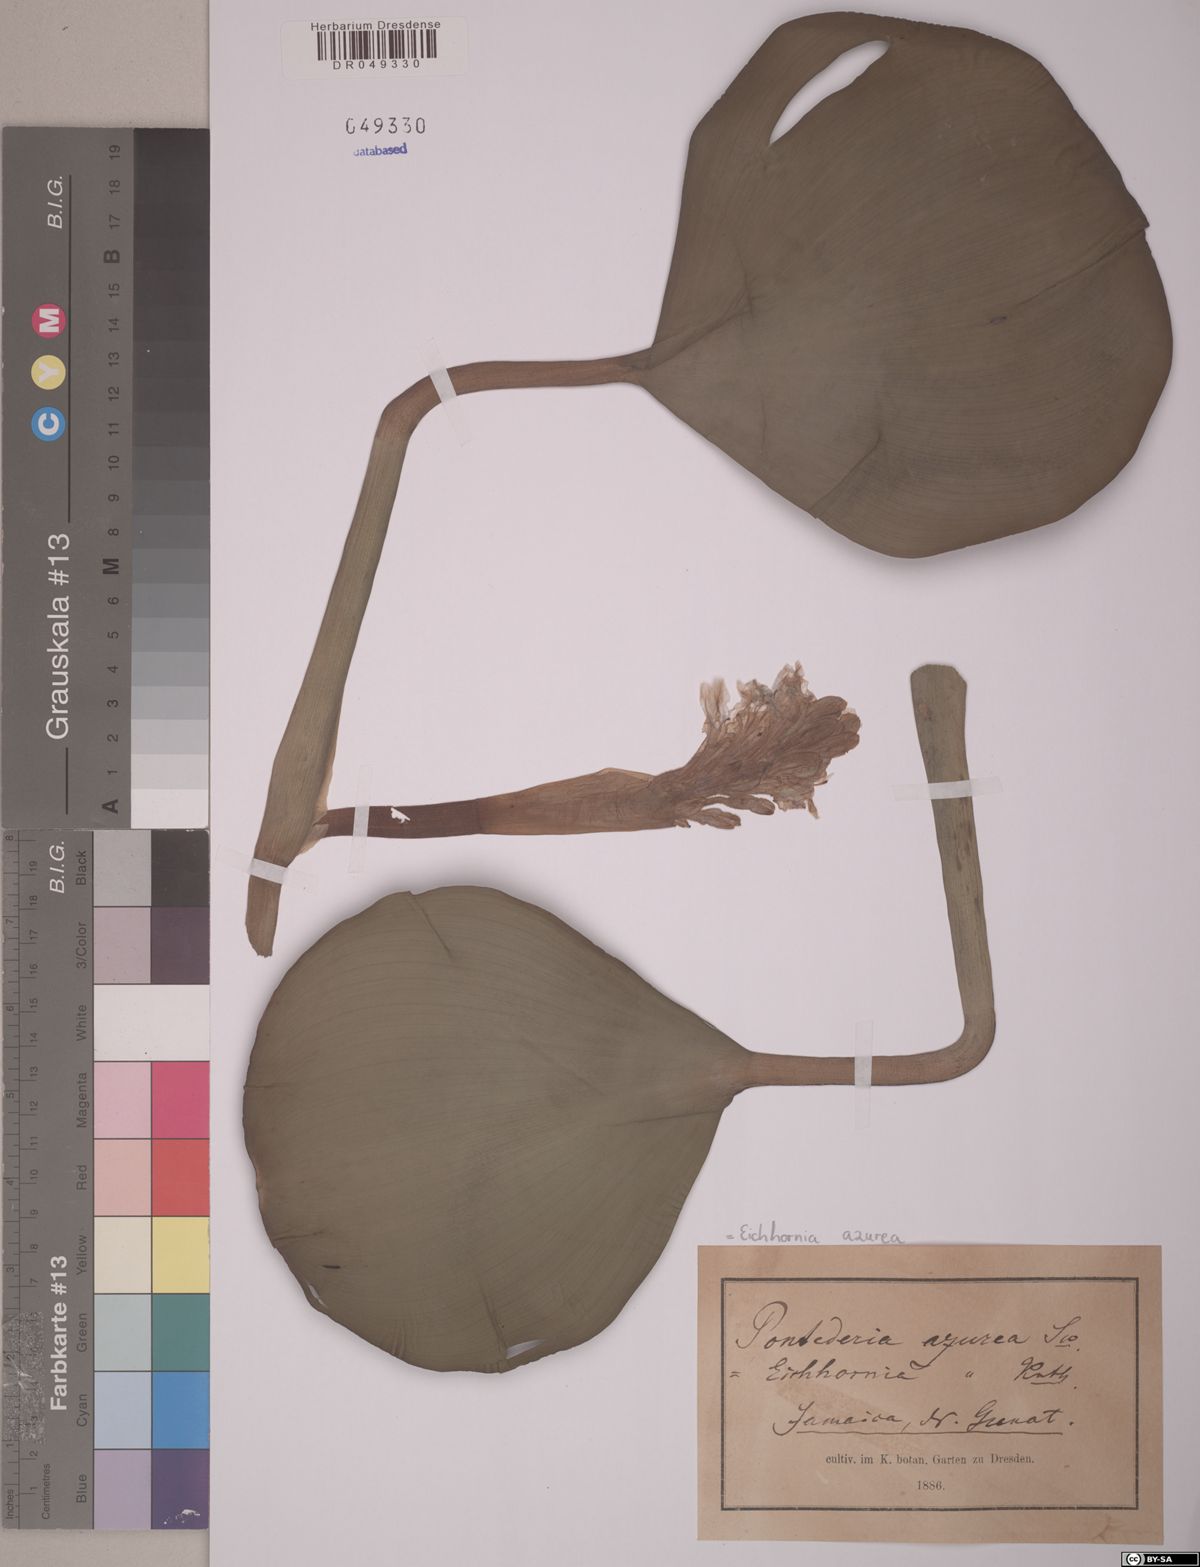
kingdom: Plantae
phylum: Tracheophyta
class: Liliopsida
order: Commelinales
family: Pontederiaceae
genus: Pontederia
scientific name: Pontederia azurea
